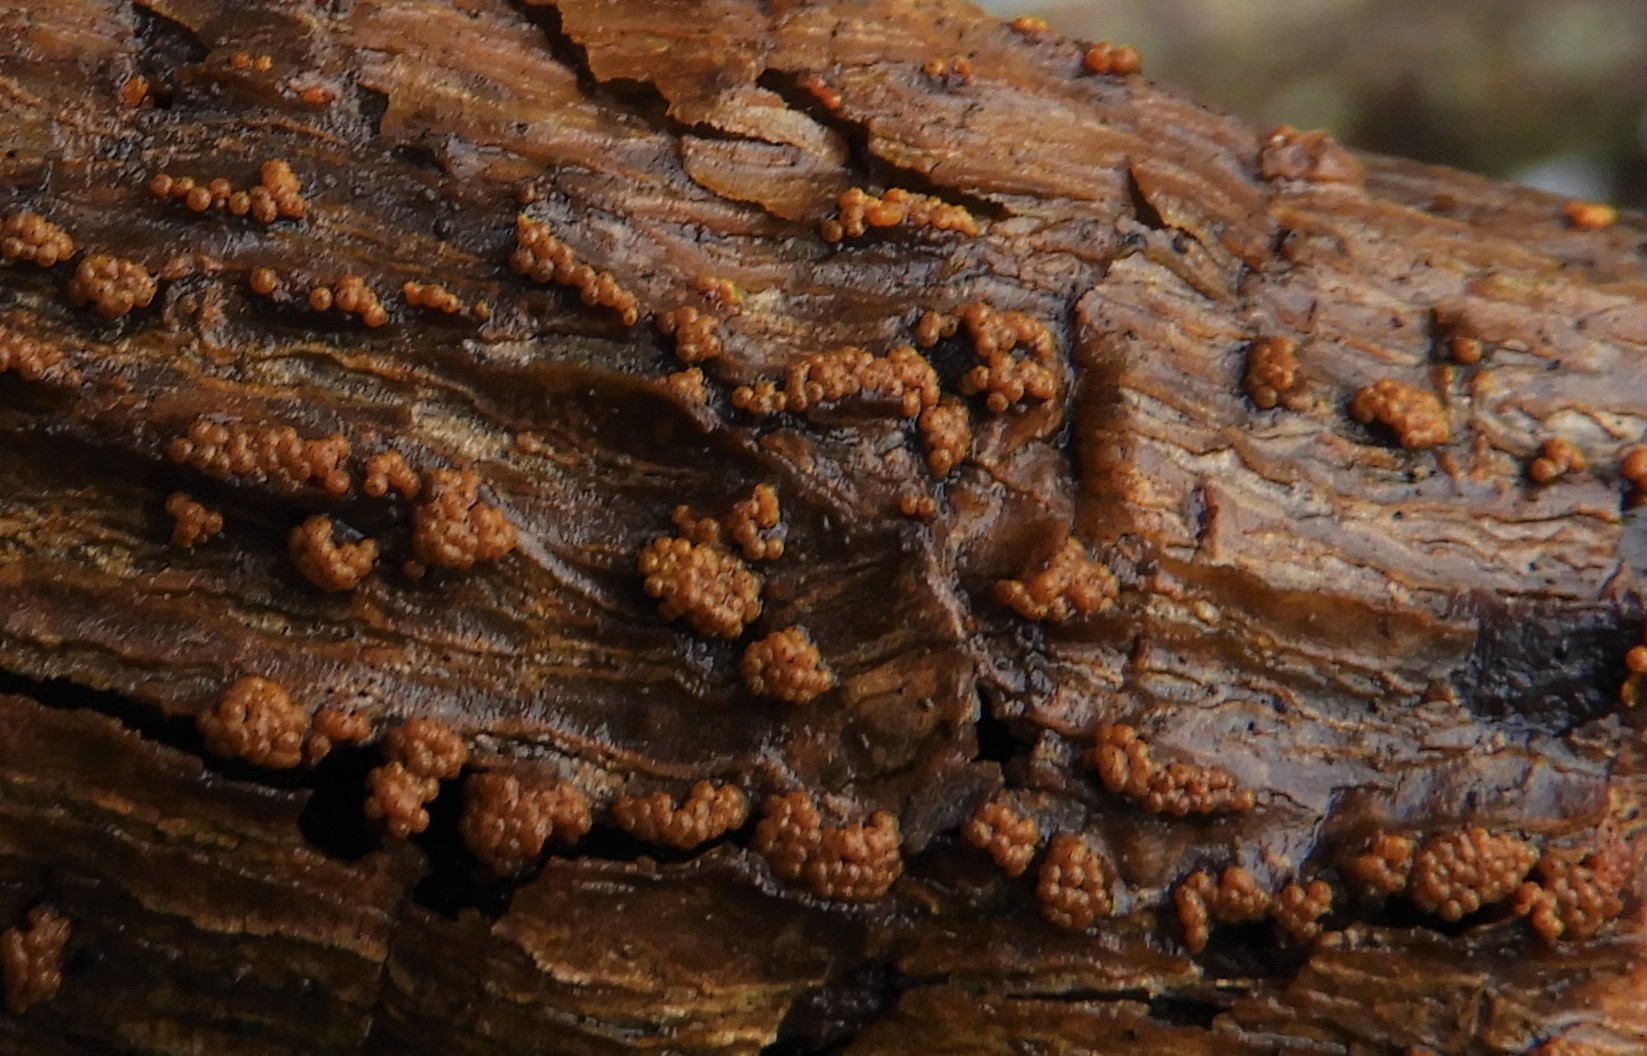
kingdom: Fungi
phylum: Ascomycota
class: Sordariomycetes
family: Thyridiaceae
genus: Thyronectria
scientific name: Thyronectria sinopica
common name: vedbend-cinnobersvamp
